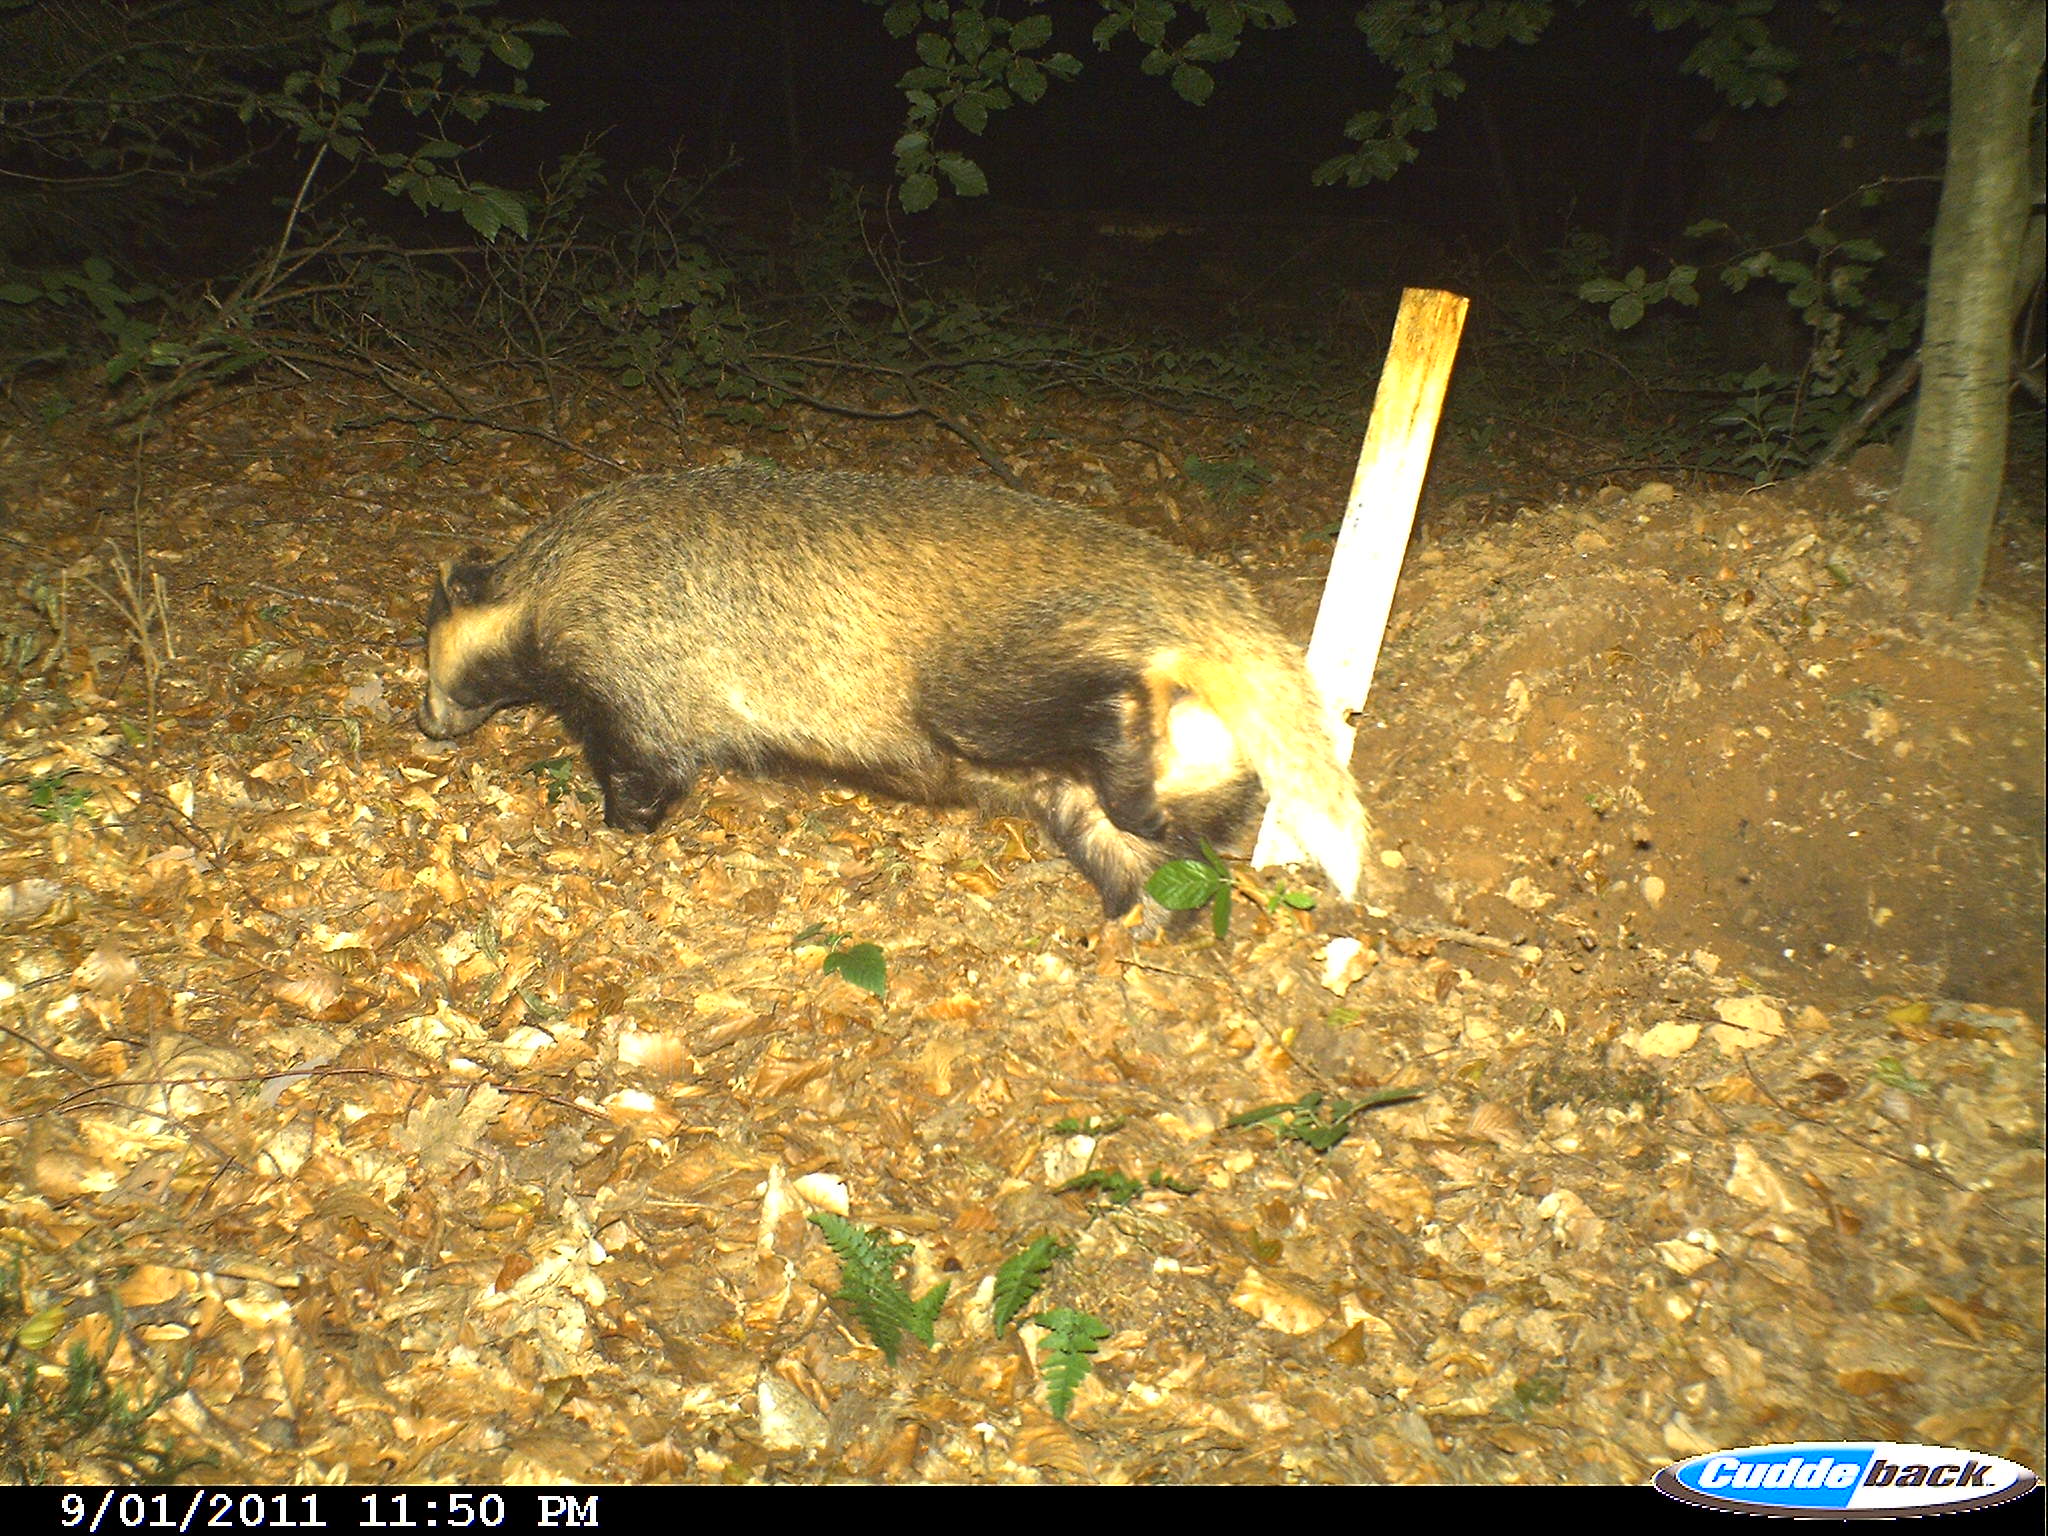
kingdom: Animalia
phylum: Chordata
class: Mammalia
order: Carnivora
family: Mustelidae
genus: Meles
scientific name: Meles meles
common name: Eurasian badger
